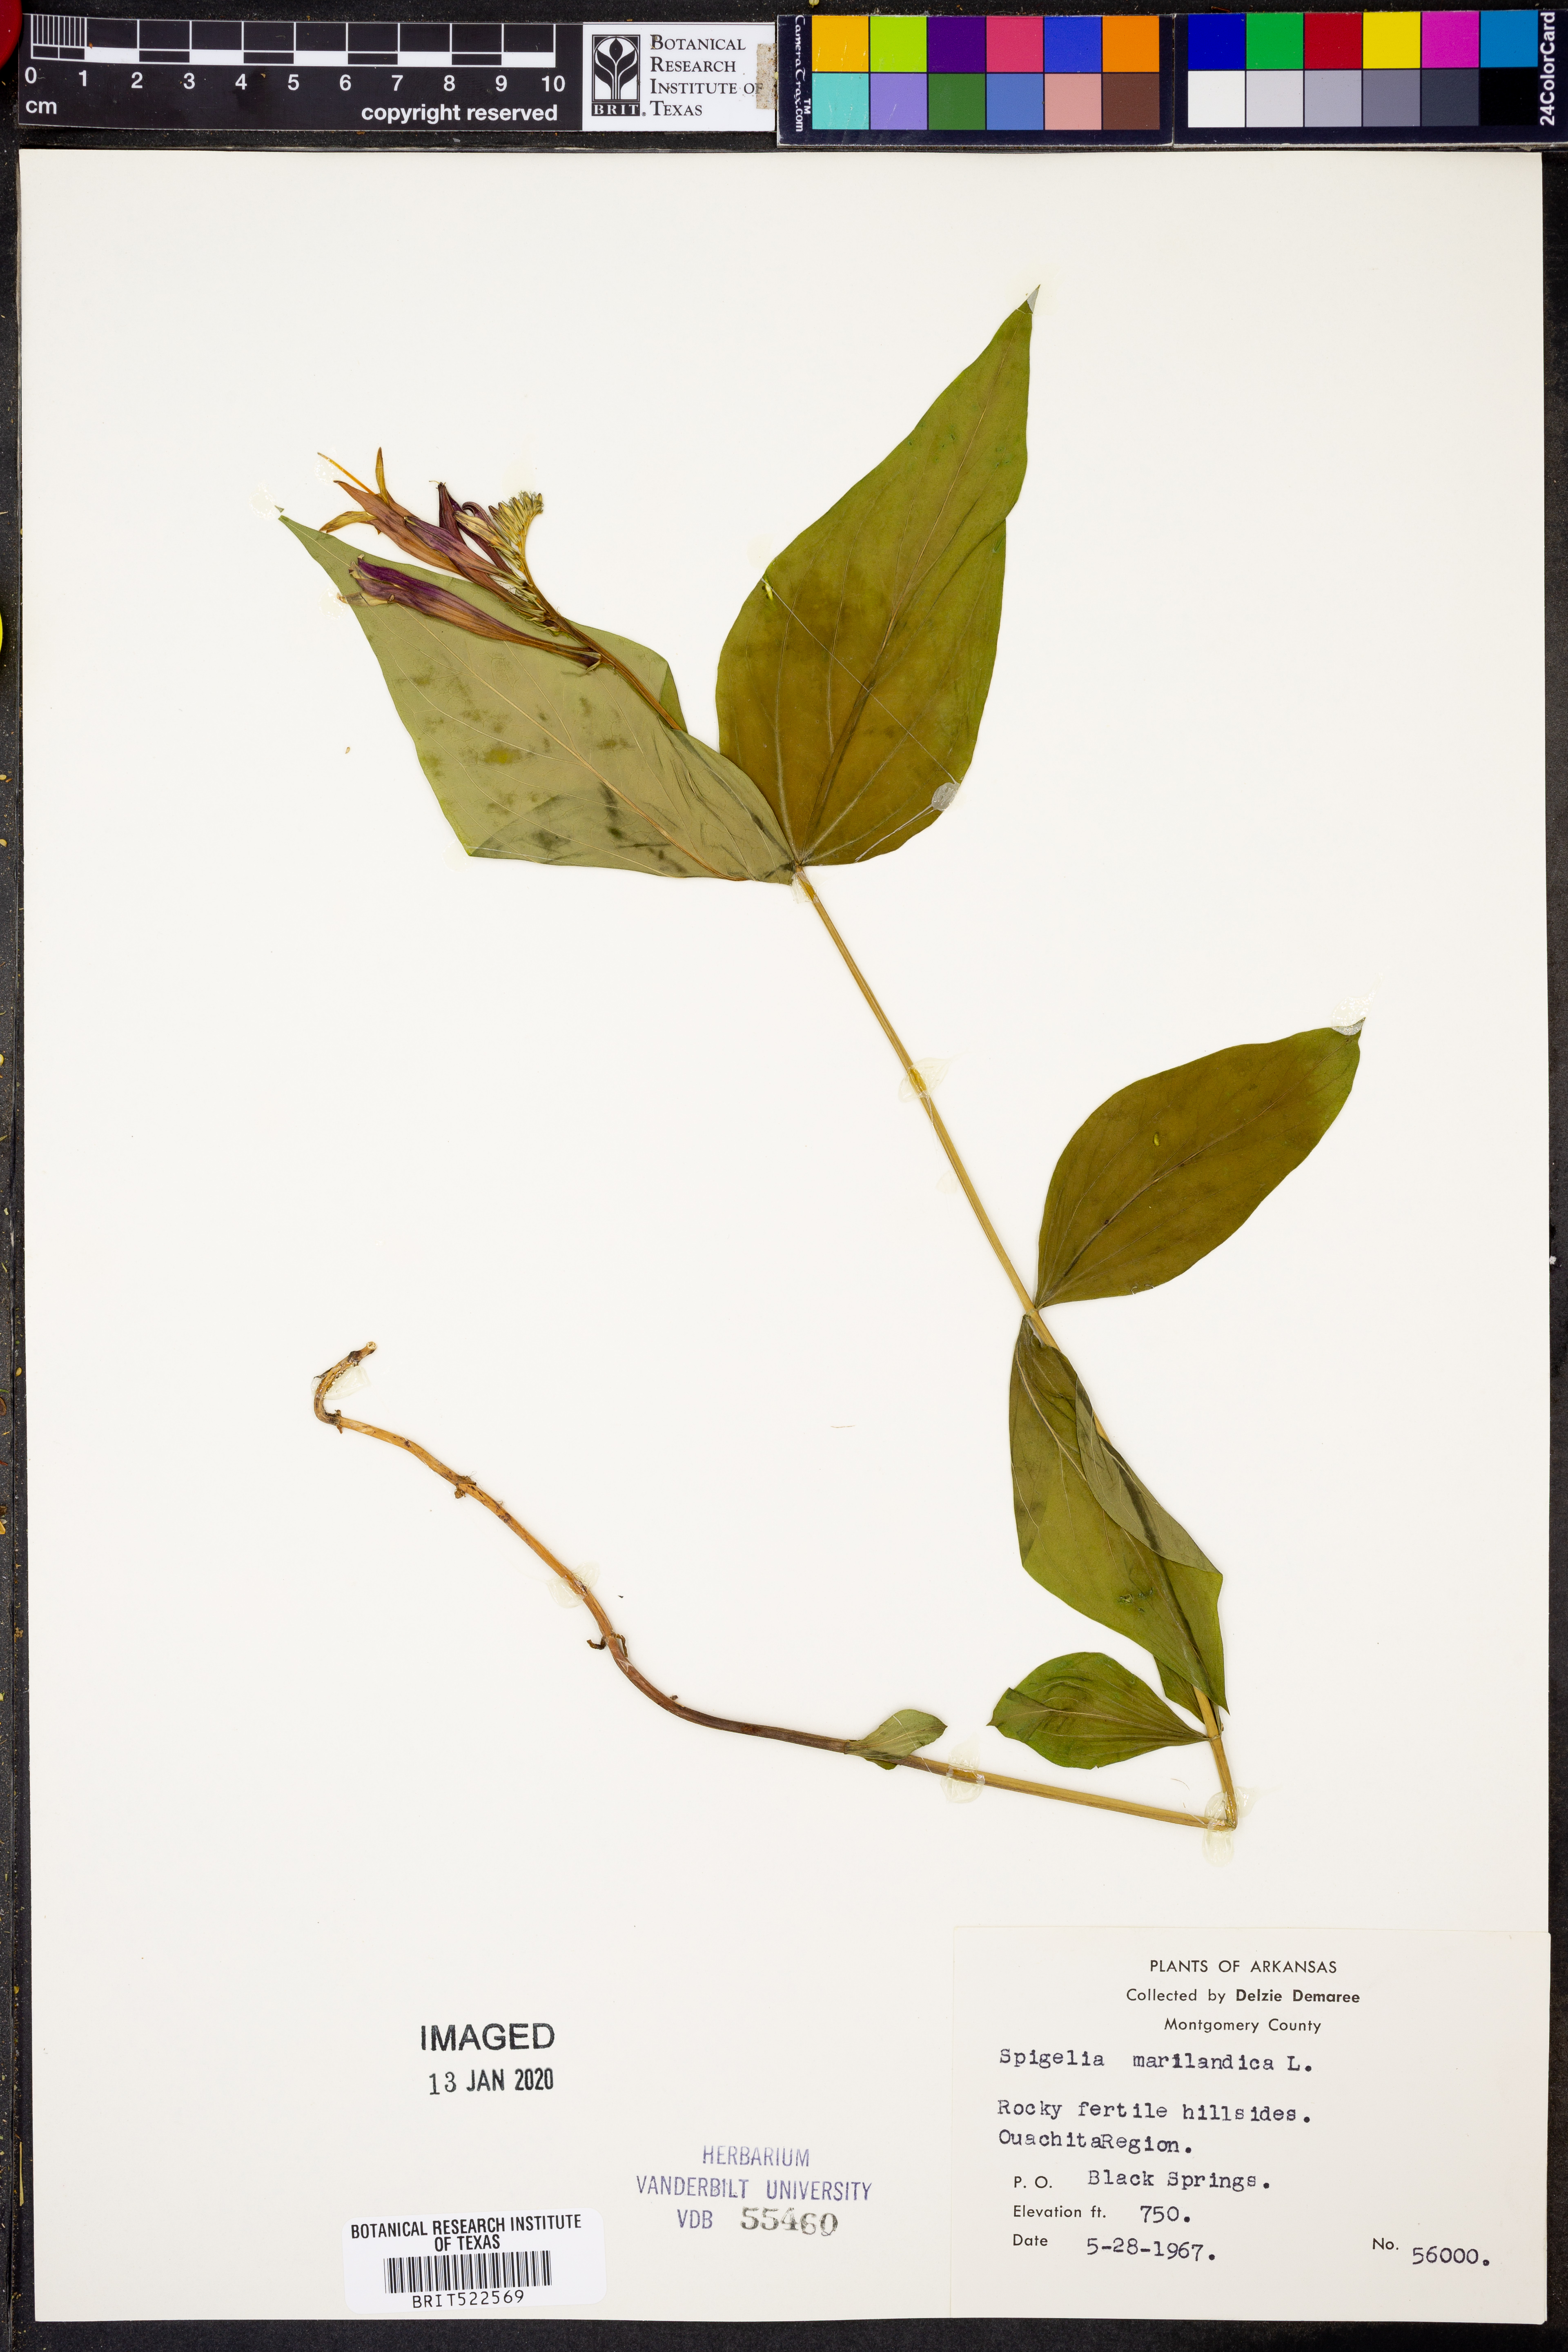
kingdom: Plantae
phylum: Tracheophyta
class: Magnoliopsida
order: Gentianales
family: Loganiaceae
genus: Spigelia
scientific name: Spigelia marilandica
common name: Indian-pink
